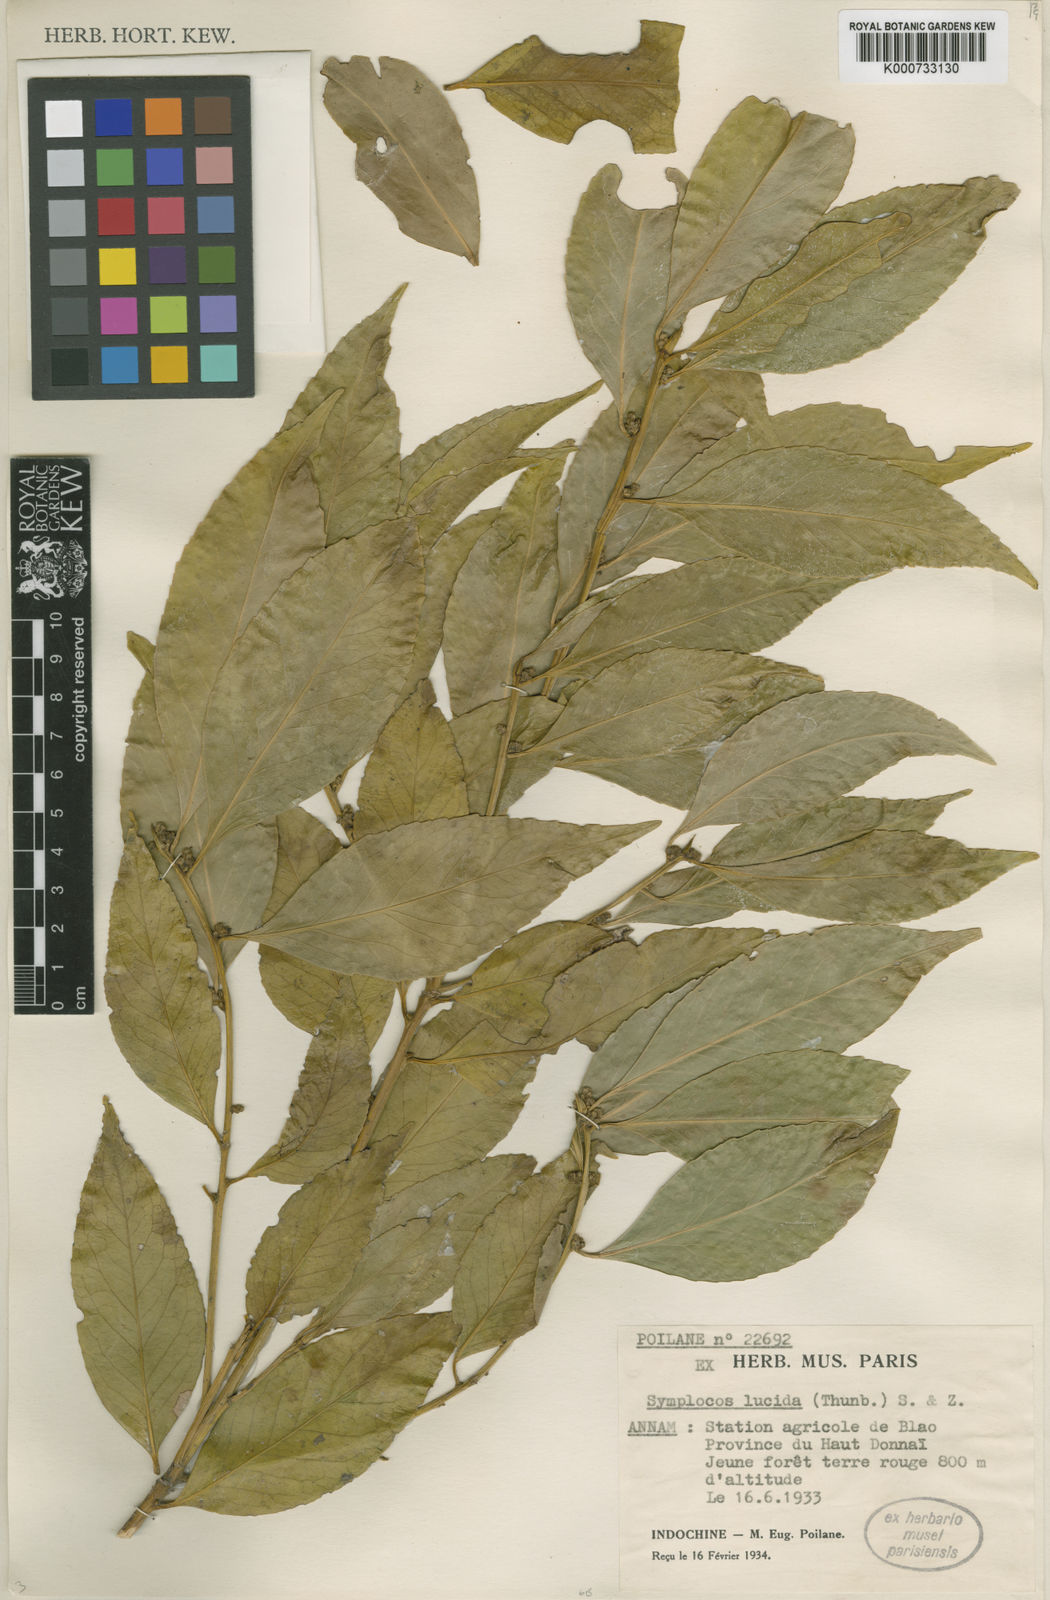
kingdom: Plantae
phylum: Tracheophyta
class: Magnoliopsida
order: Ericales
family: Symplocaceae
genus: Symplocos
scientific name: Symplocos
